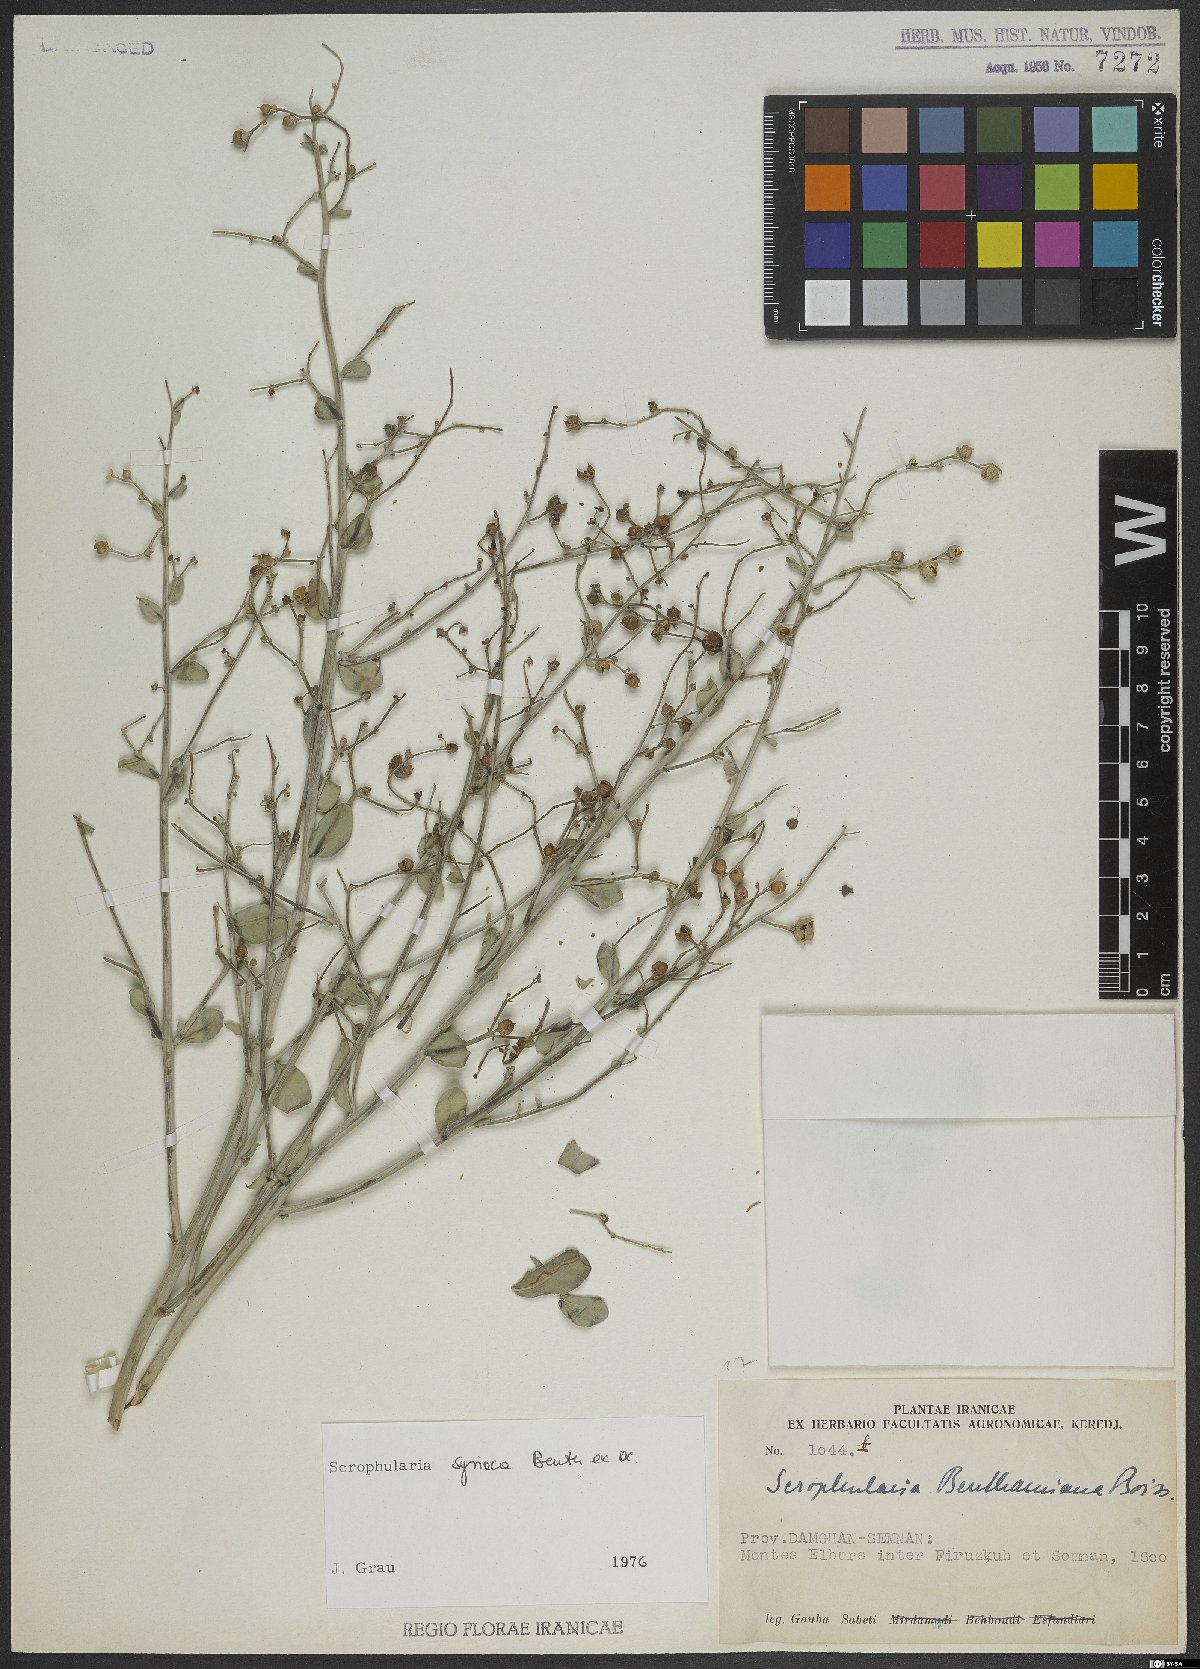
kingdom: Plantae
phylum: Tracheophyta
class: Magnoliopsida
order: Lamiales
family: Scrophulariaceae
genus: Scrophularia
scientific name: Scrophularia hypericifolia
